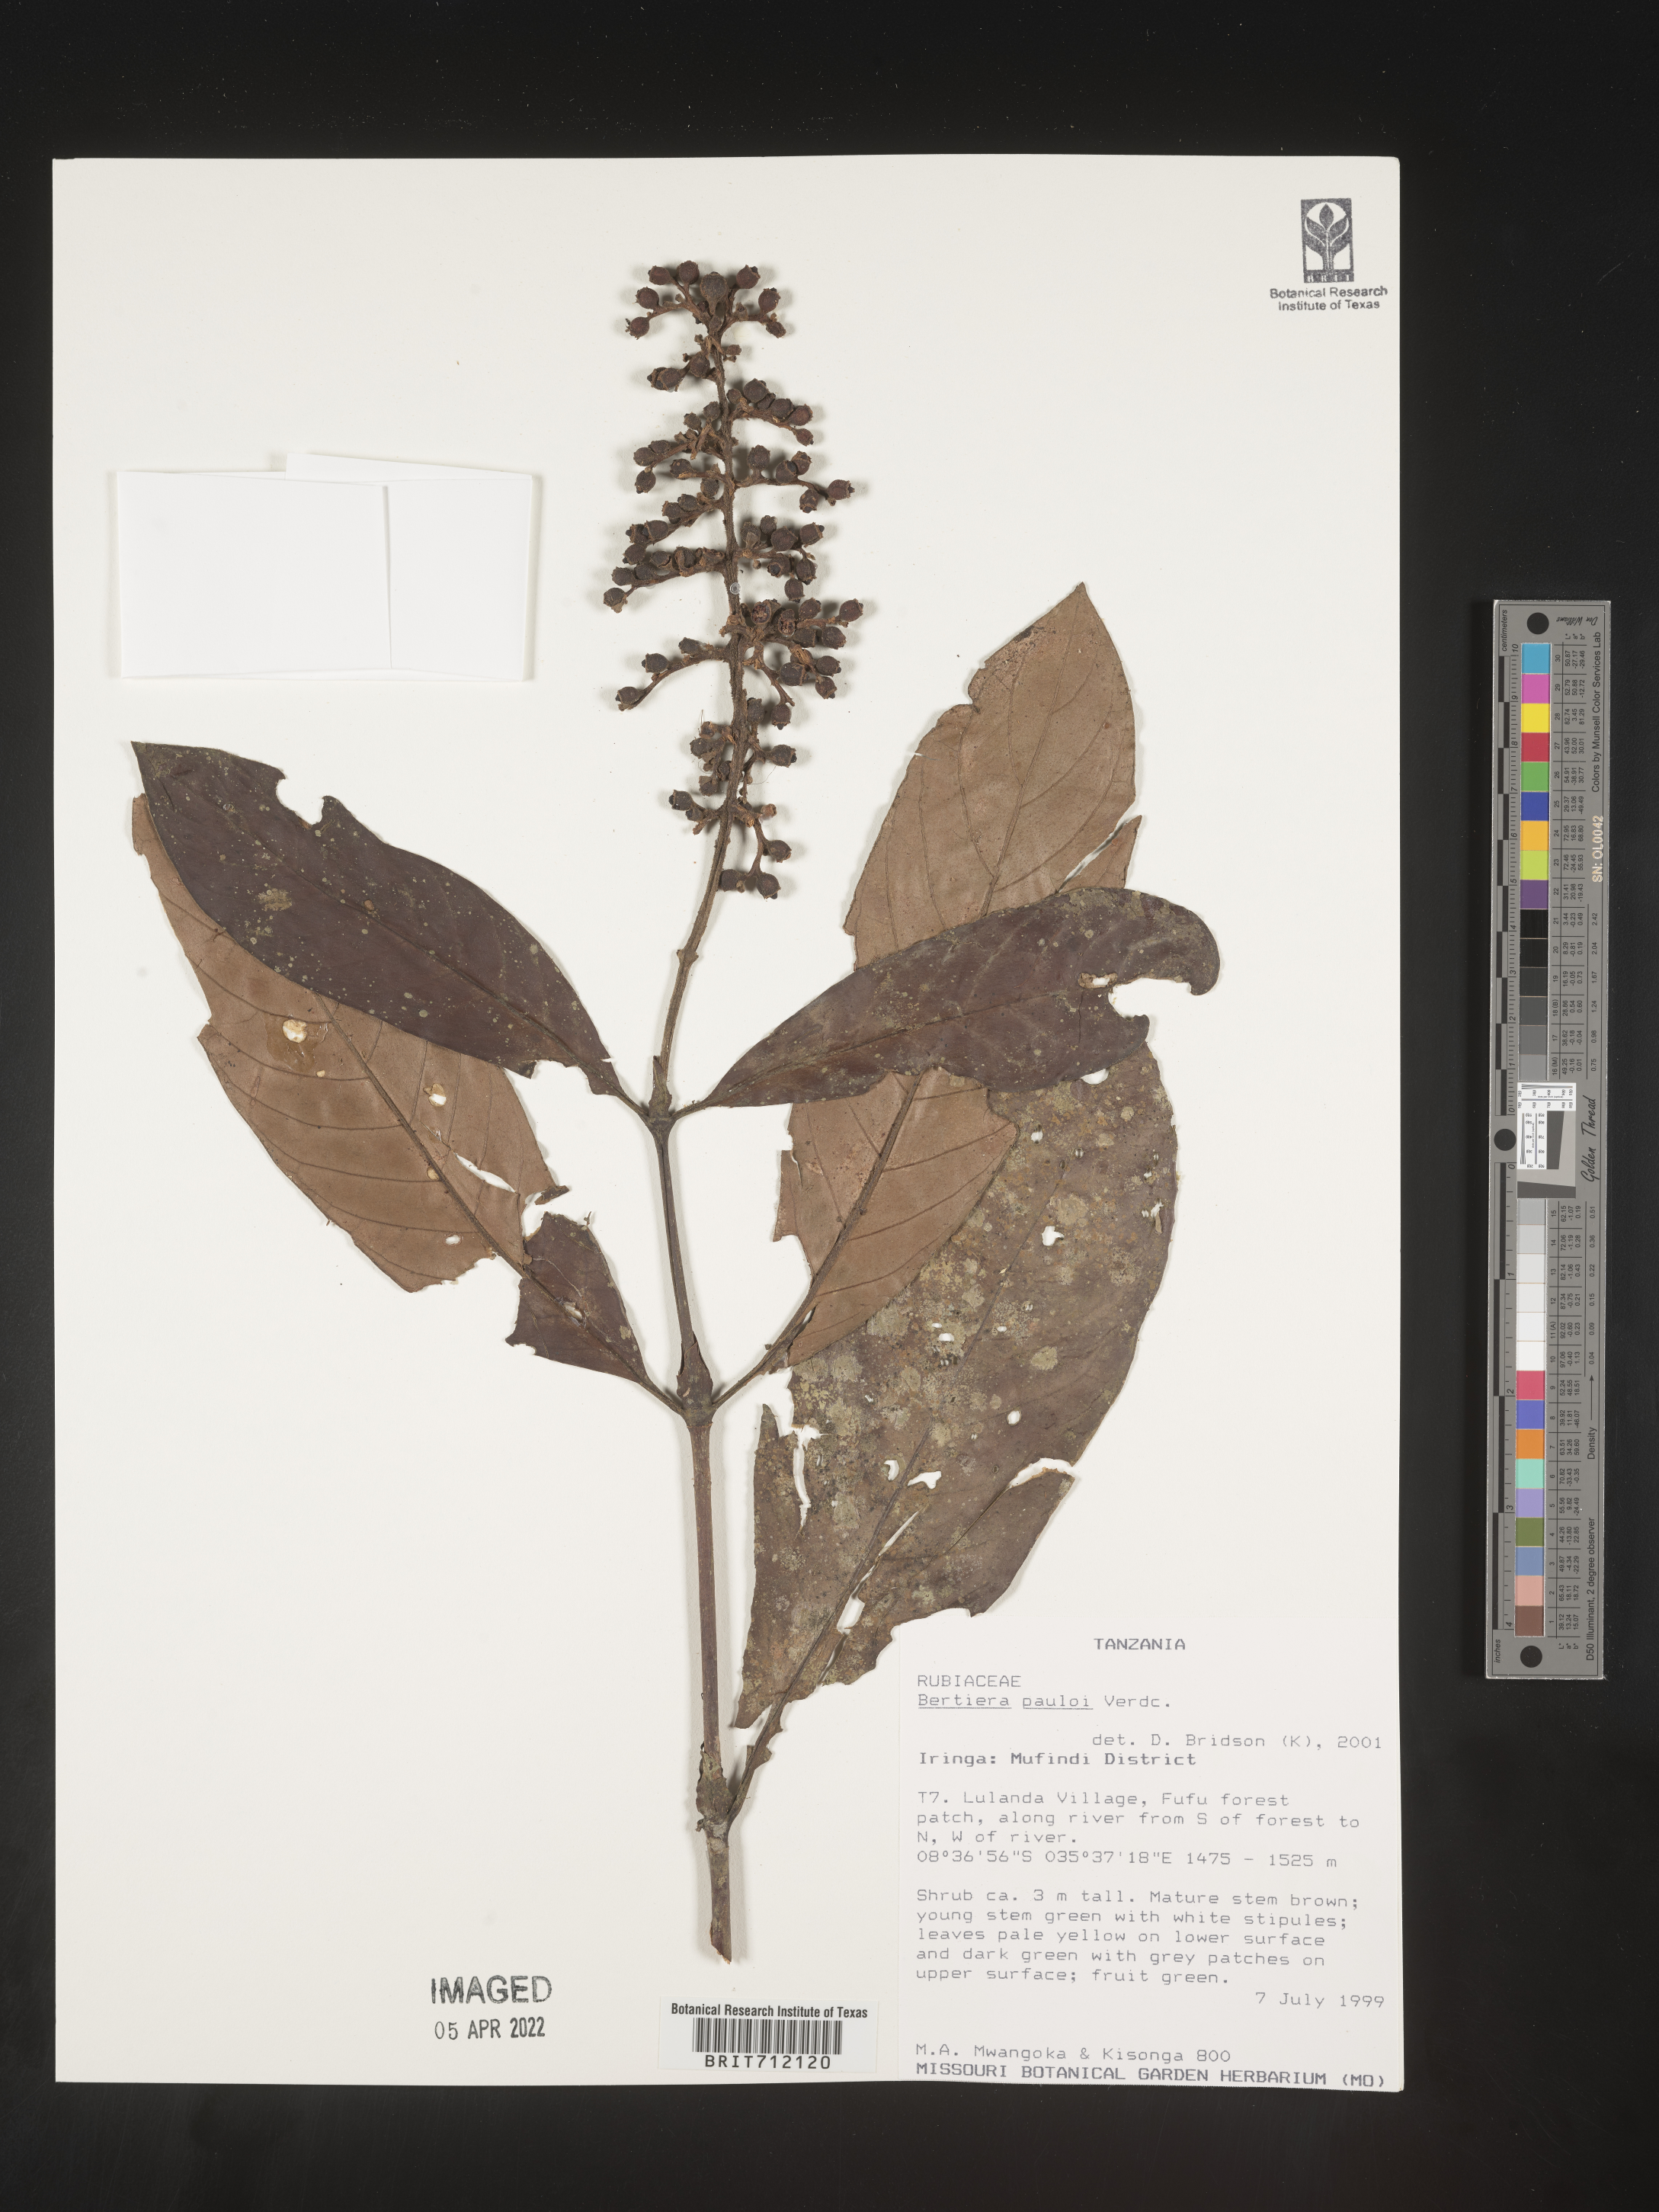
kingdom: Plantae
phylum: Tracheophyta
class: Magnoliopsida
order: Gentianales
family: Rubiaceae
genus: Bertiera
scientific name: Bertiera
